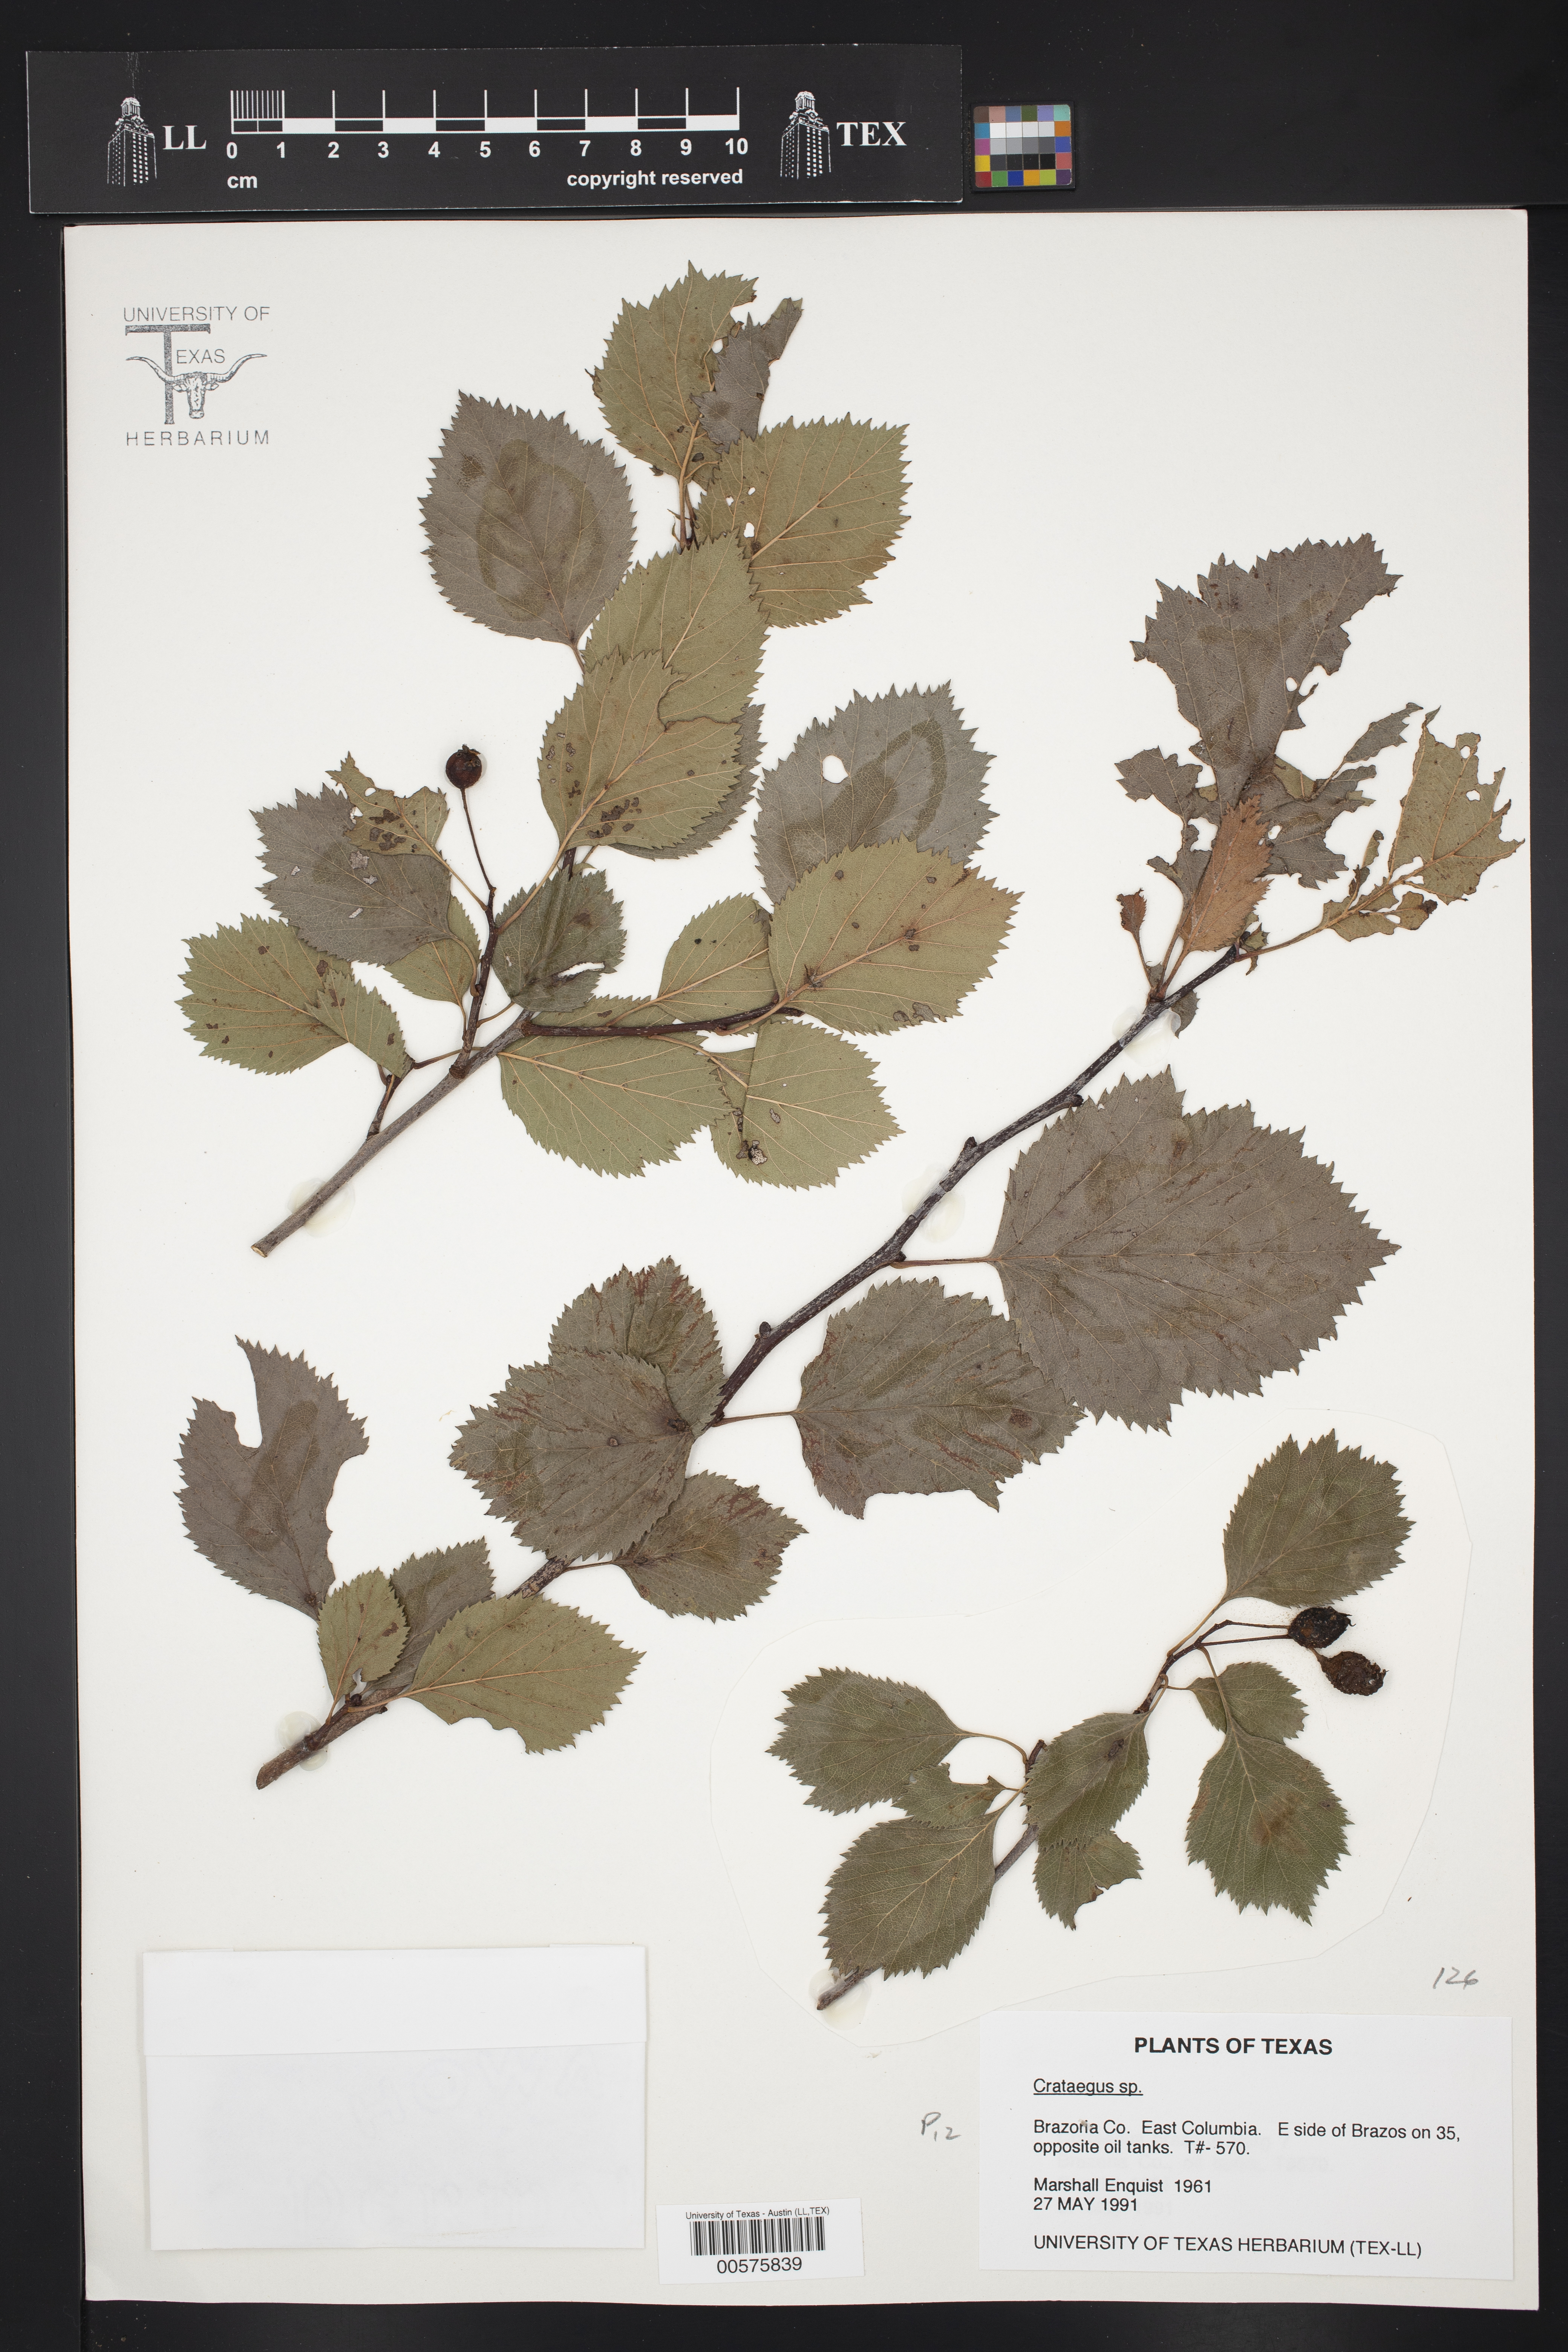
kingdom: Plantae
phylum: Tracheophyta
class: Magnoliopsida
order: Rosales
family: Rosaceae
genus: Crataegus
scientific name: Crataegus
